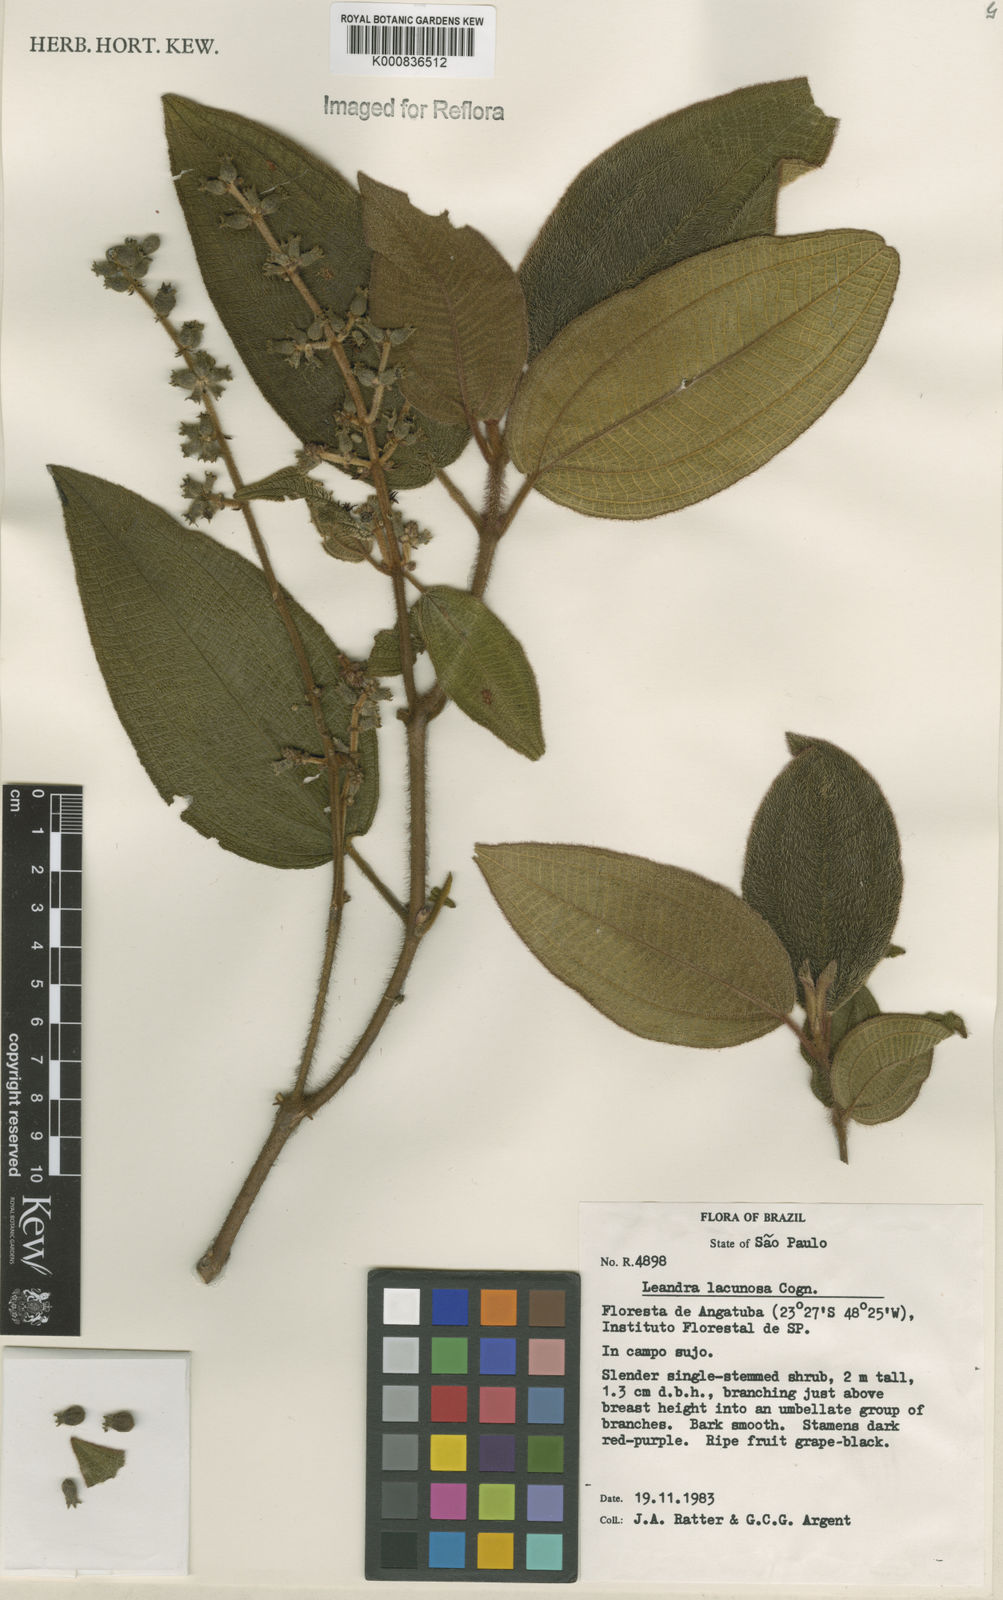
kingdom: Plantae
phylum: Tracheophyta
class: Magnoliopsida
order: Myrtales
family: Melastomataceae
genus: Miconia
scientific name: Miconia lacunosa
